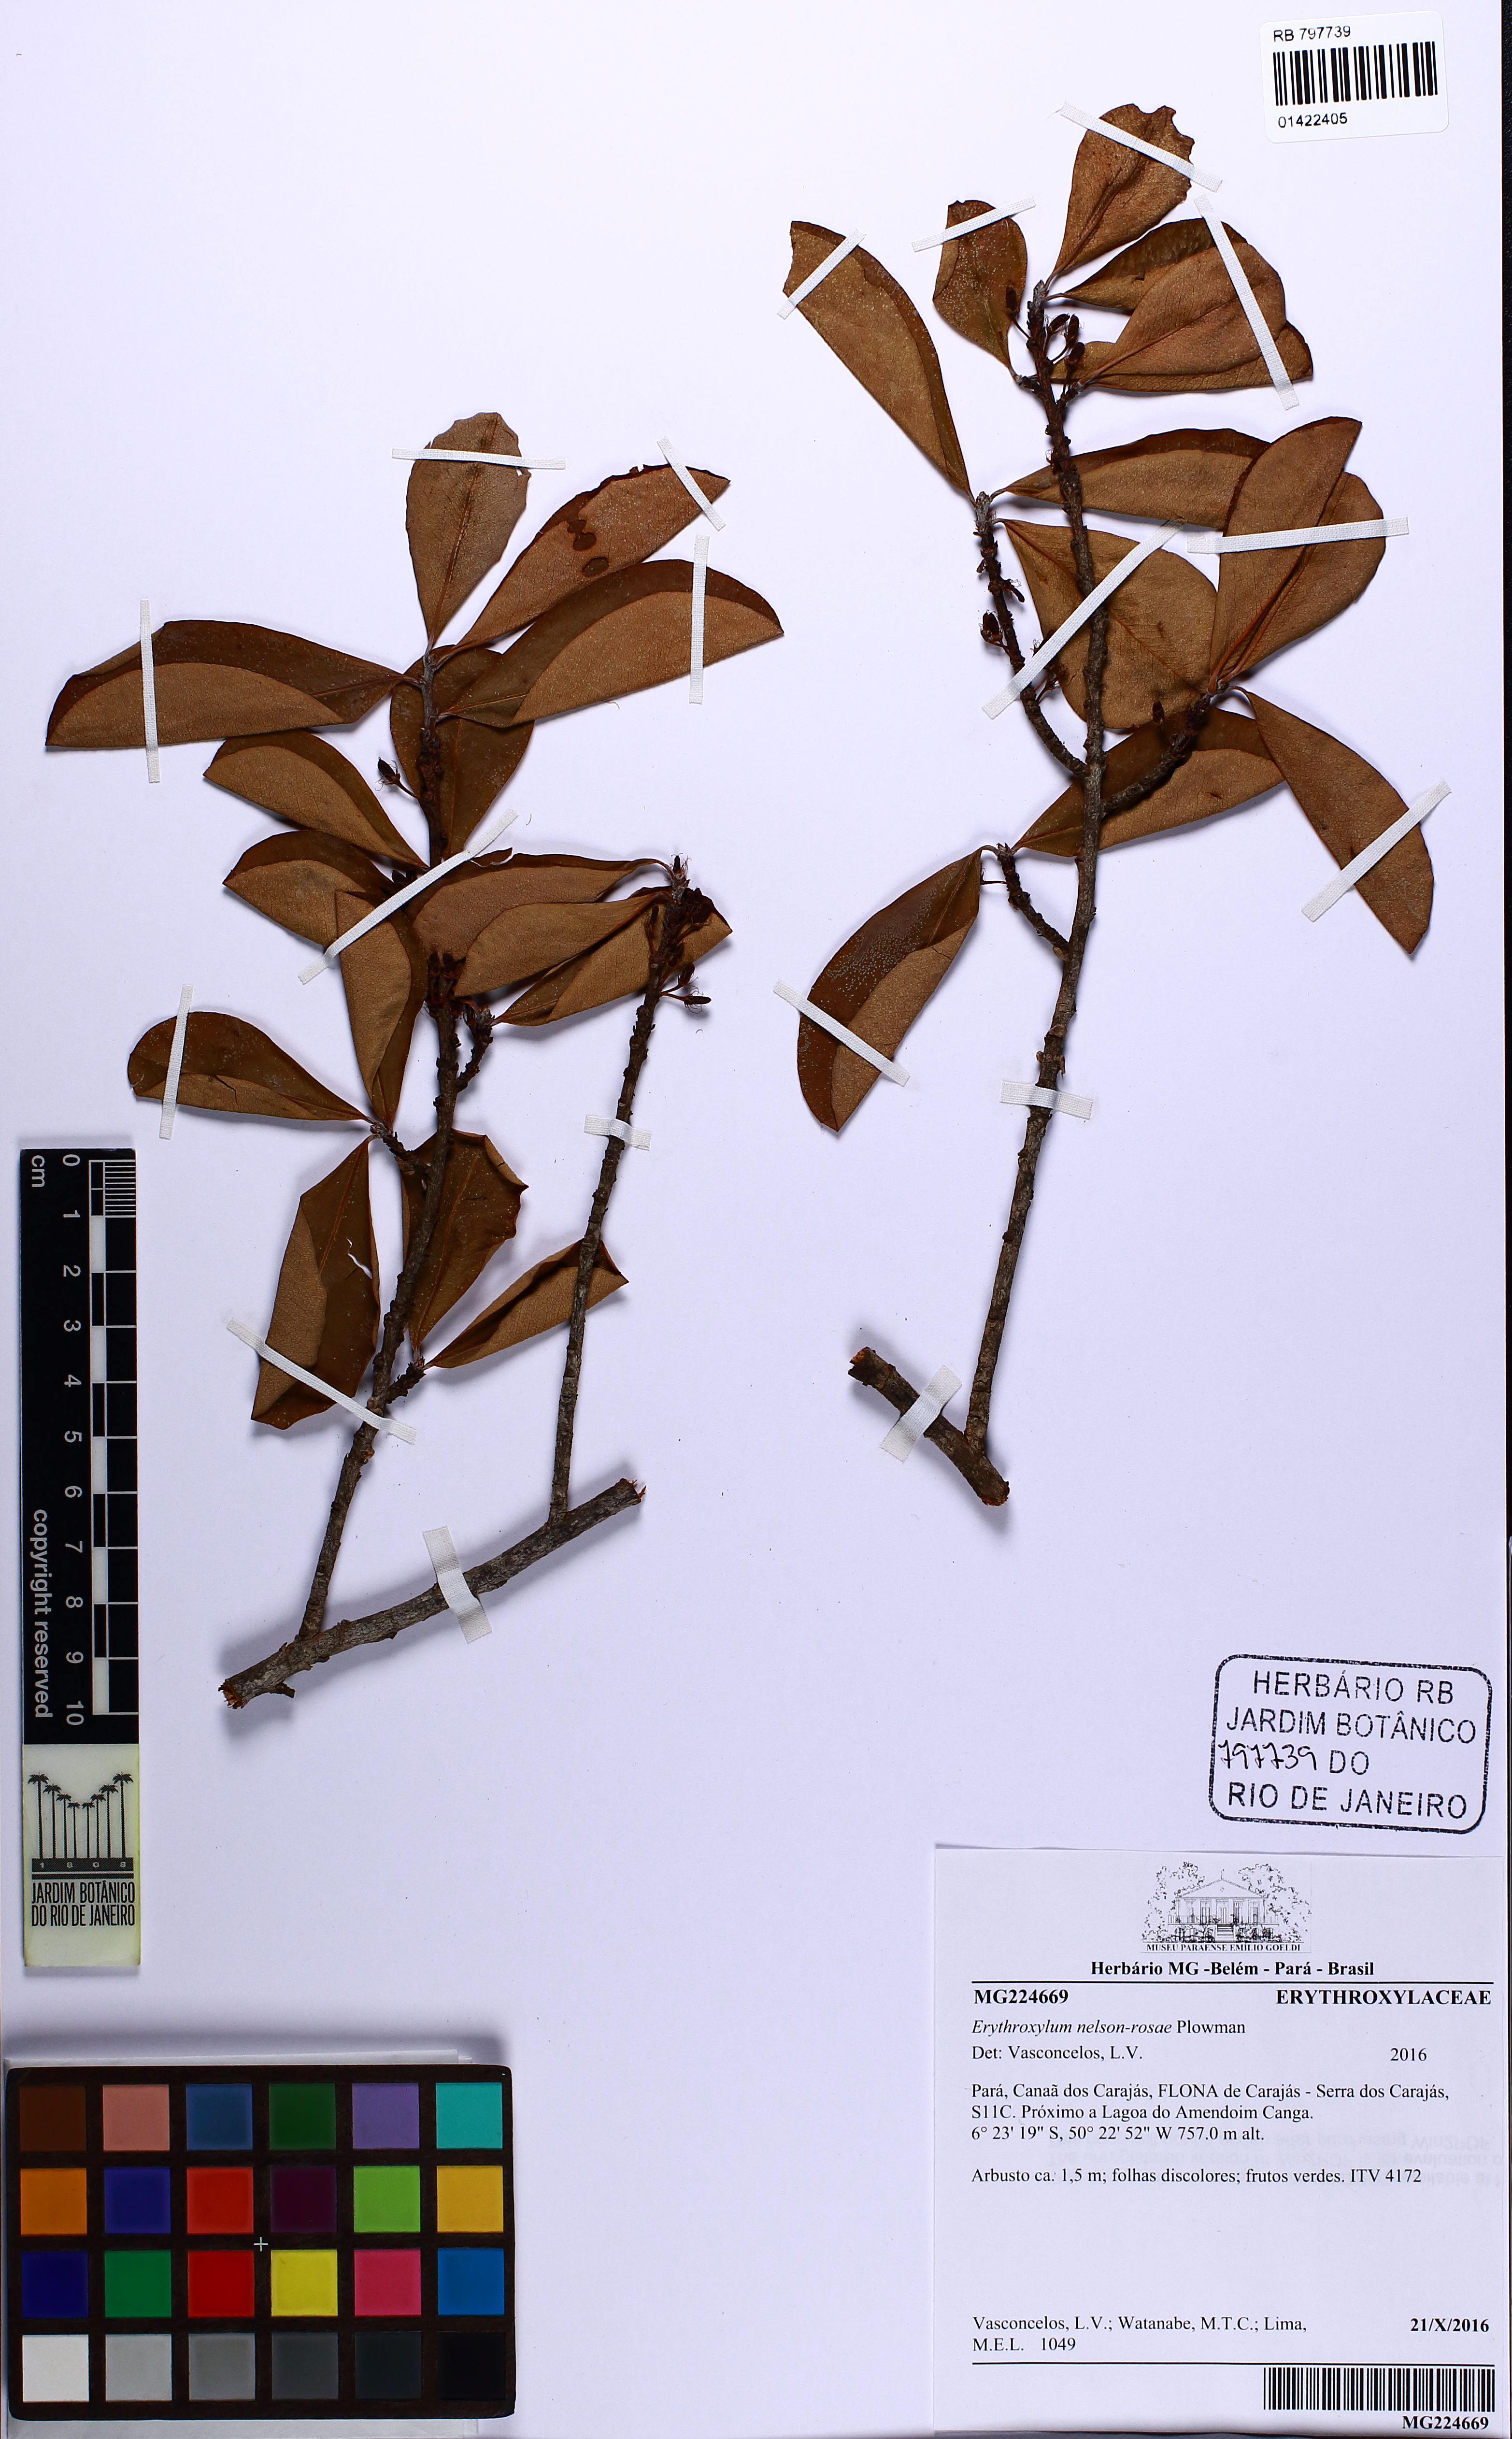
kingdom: Plantae
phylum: Tracheophyta
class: Magnoliopsida
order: Malpighiales
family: Erythroxylaceae
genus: Erythroxylum
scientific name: Erythroxylum nelson-rosae
